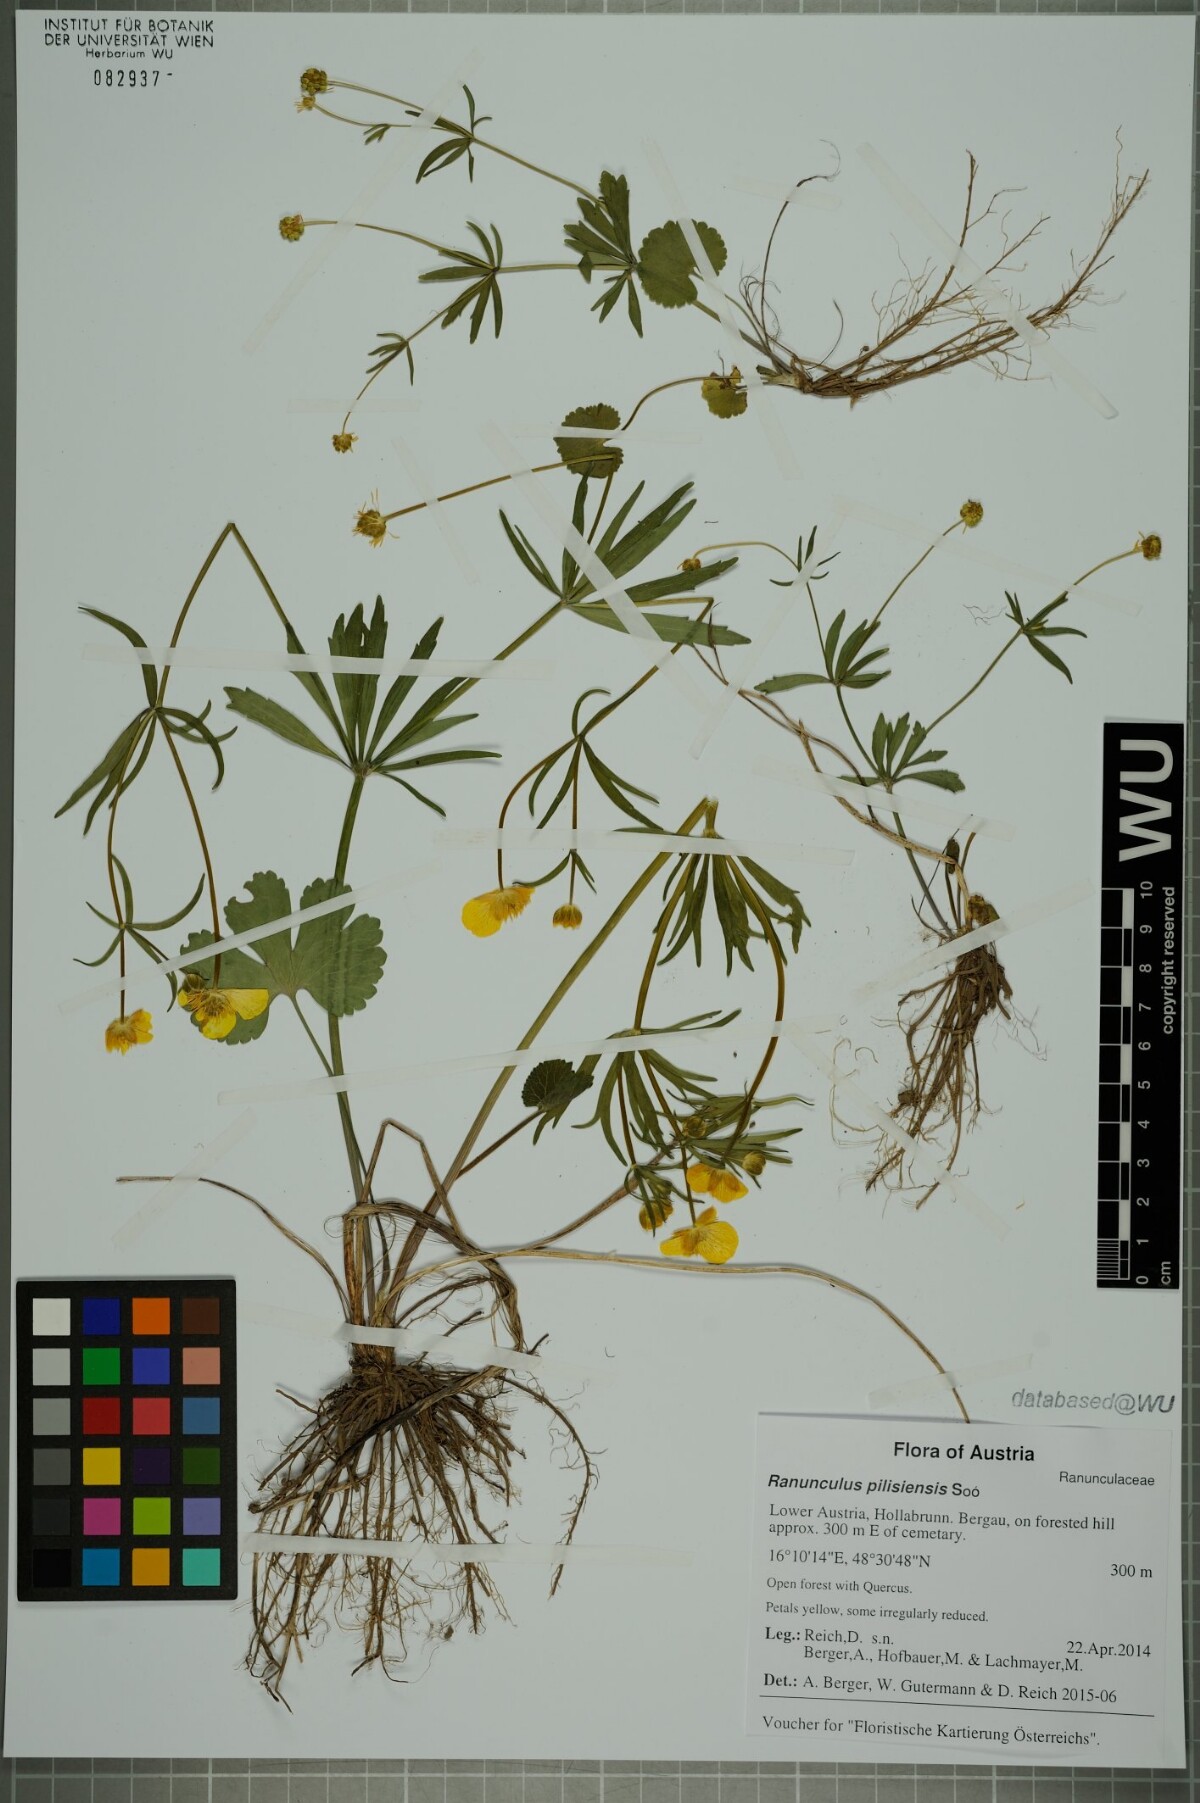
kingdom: Plantae
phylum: Tracheophyta
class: Magnoliopsida
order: Ranunculales
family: Ranunculaceae
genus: Ranunculus
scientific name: Ranunculus pilisiensis
